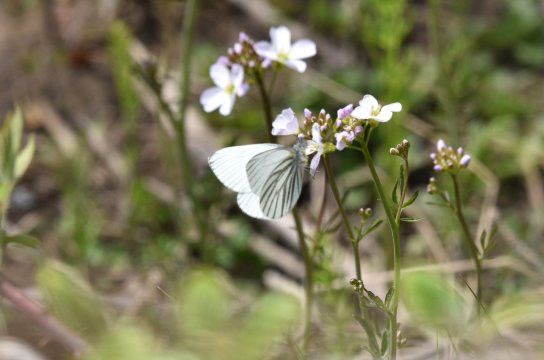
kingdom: Animalia
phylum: Arthropoda
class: Insecta
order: Lepidoptera
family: Pieridae
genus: Pieris
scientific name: Pieris oleracea
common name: Mustard White
